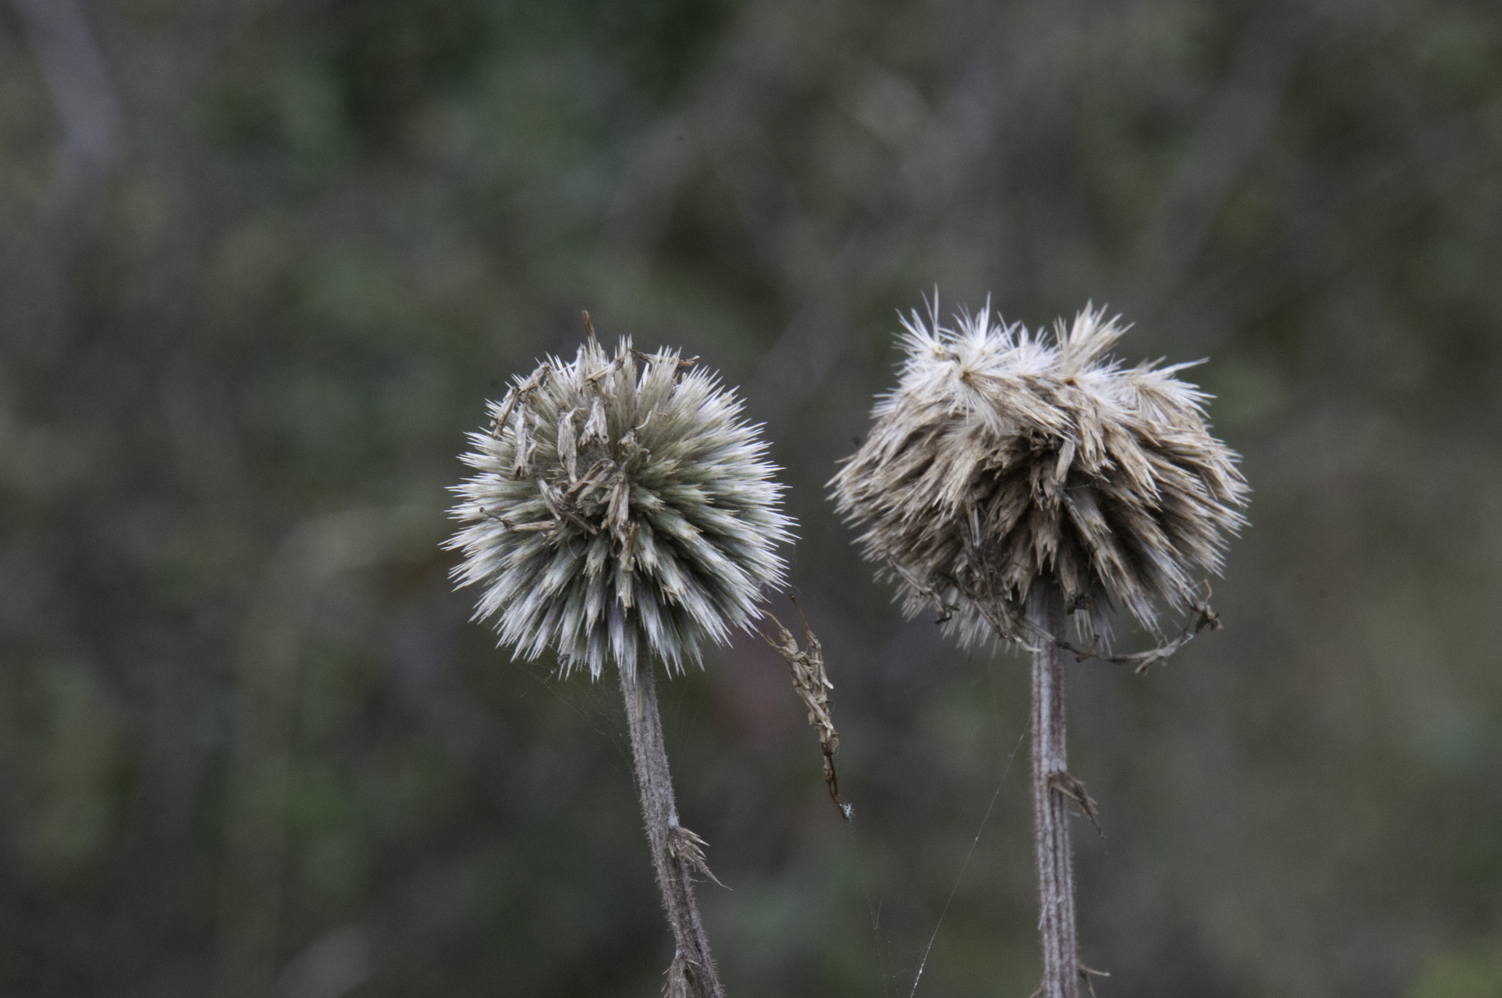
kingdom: Plantae
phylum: Tracheophyta
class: Magnoliopsida
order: Asterales
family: Asteraceae
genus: Echinops
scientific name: Echinops sphaerocephalus
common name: Glandular globe-thistle
